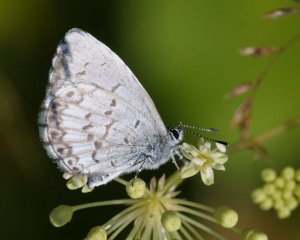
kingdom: Animalia
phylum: Arthropoda
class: Insecta
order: Lepidoptera
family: Lycaenidae
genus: Cyaniris
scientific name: Cyaniris neglecta
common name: Summer Azure
